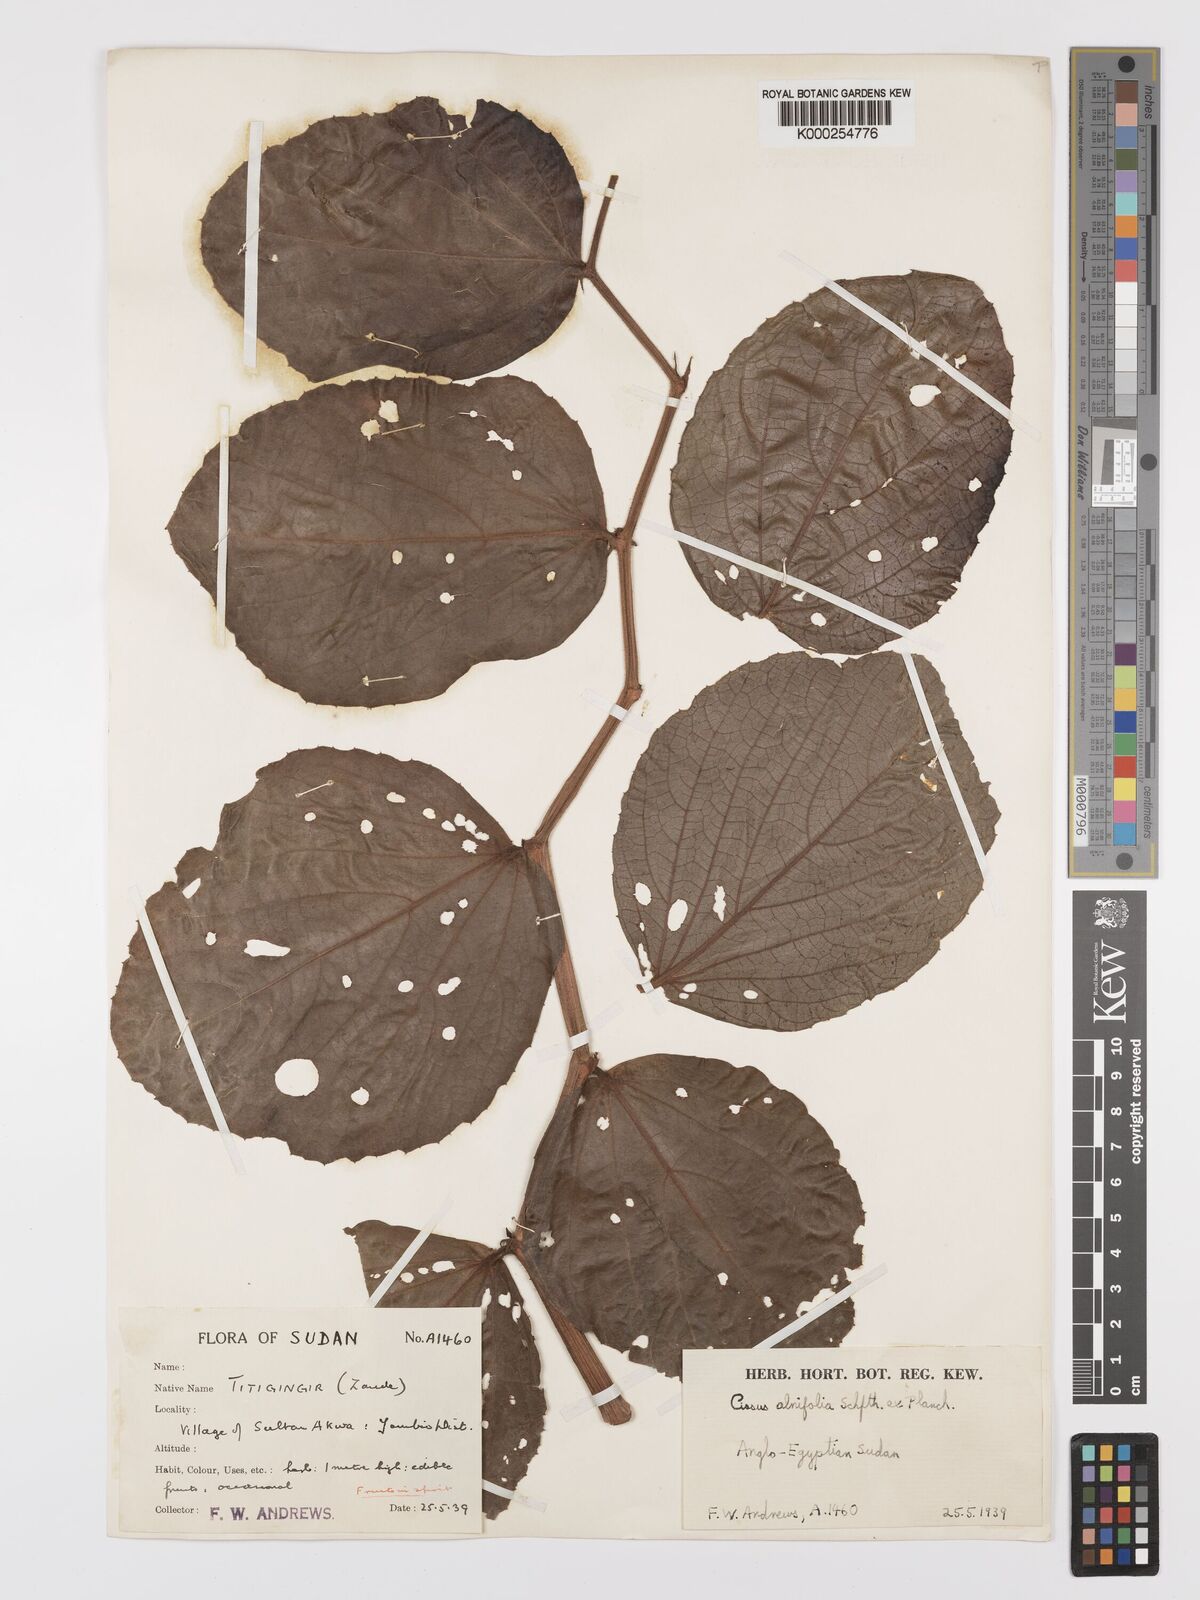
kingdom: Plantae
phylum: Tracheophyta
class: Magnoliopsida
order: Vitales
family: Vitaceae
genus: Cyphostemma
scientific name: Cyphostemma alnifolium
